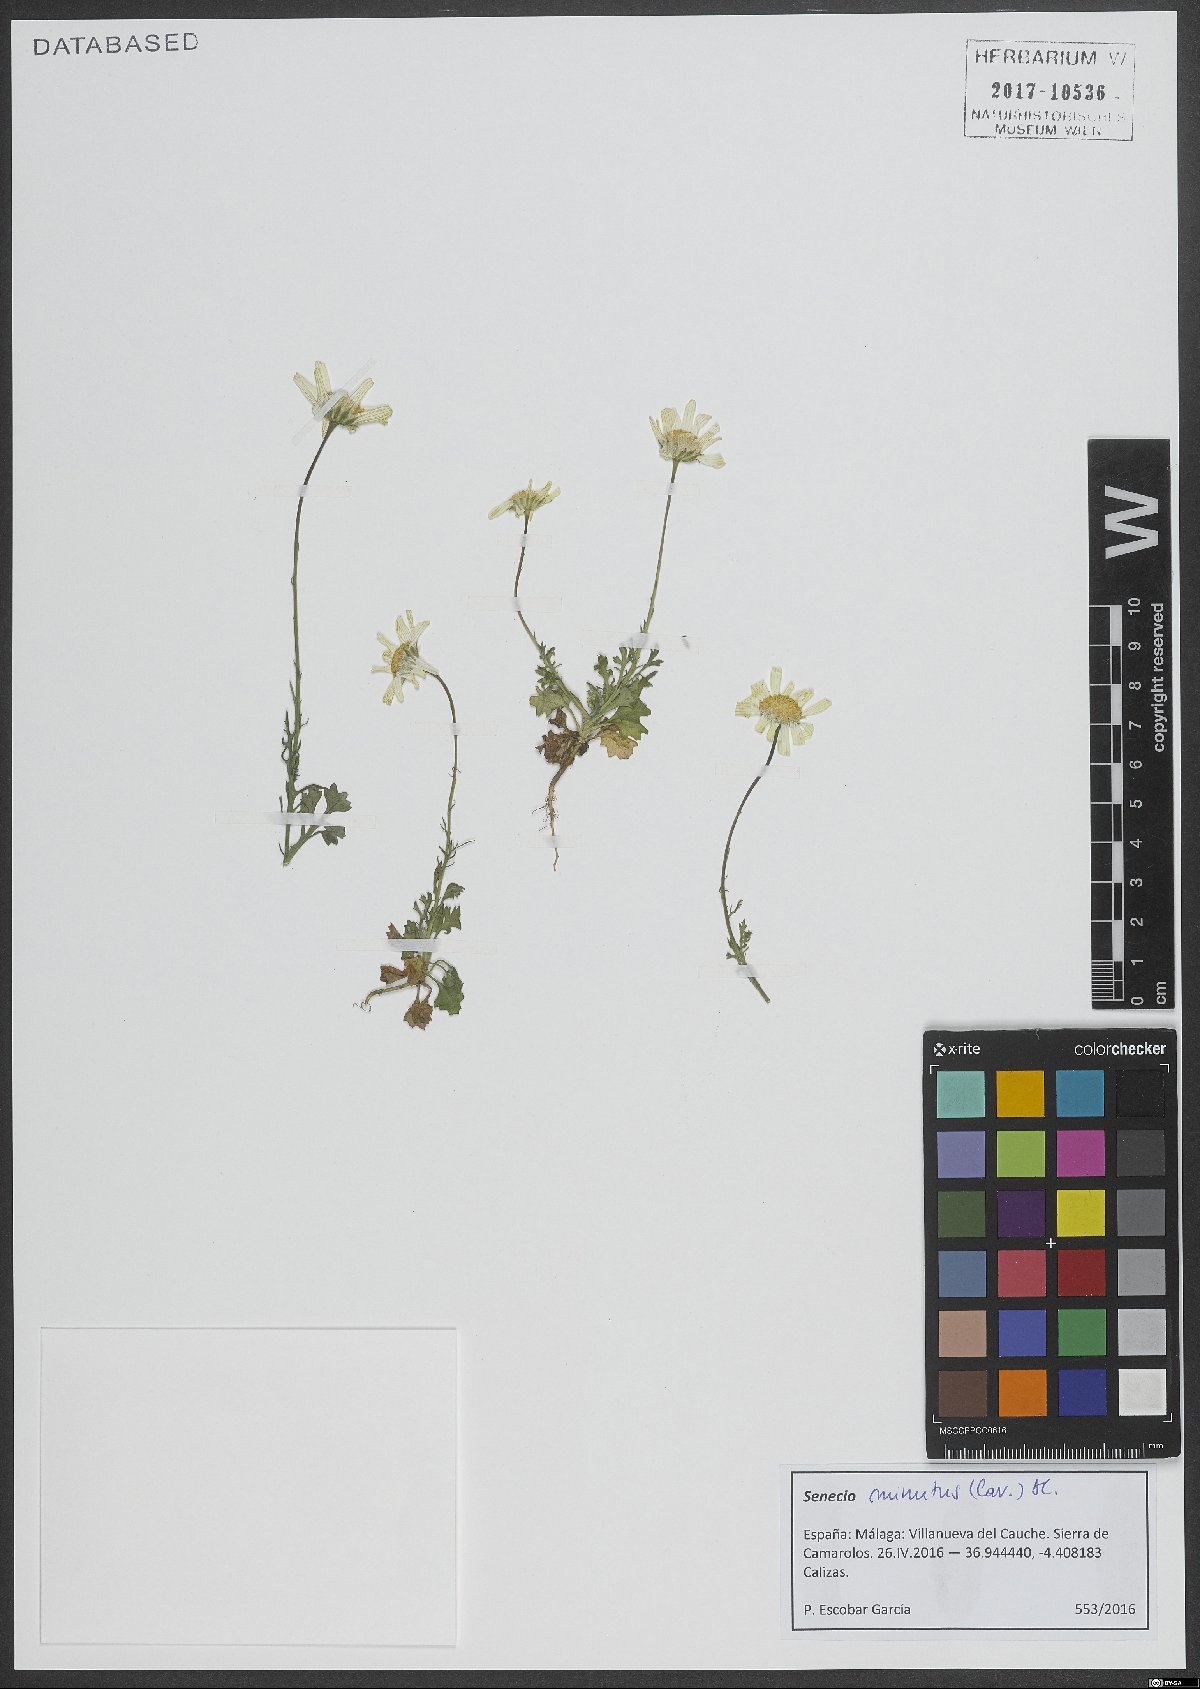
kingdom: Plantae
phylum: Tracheophyta
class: Magnoliopsida
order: Asterales
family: Asteraceae
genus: Jacobaea
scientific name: Jacobaea minuta
